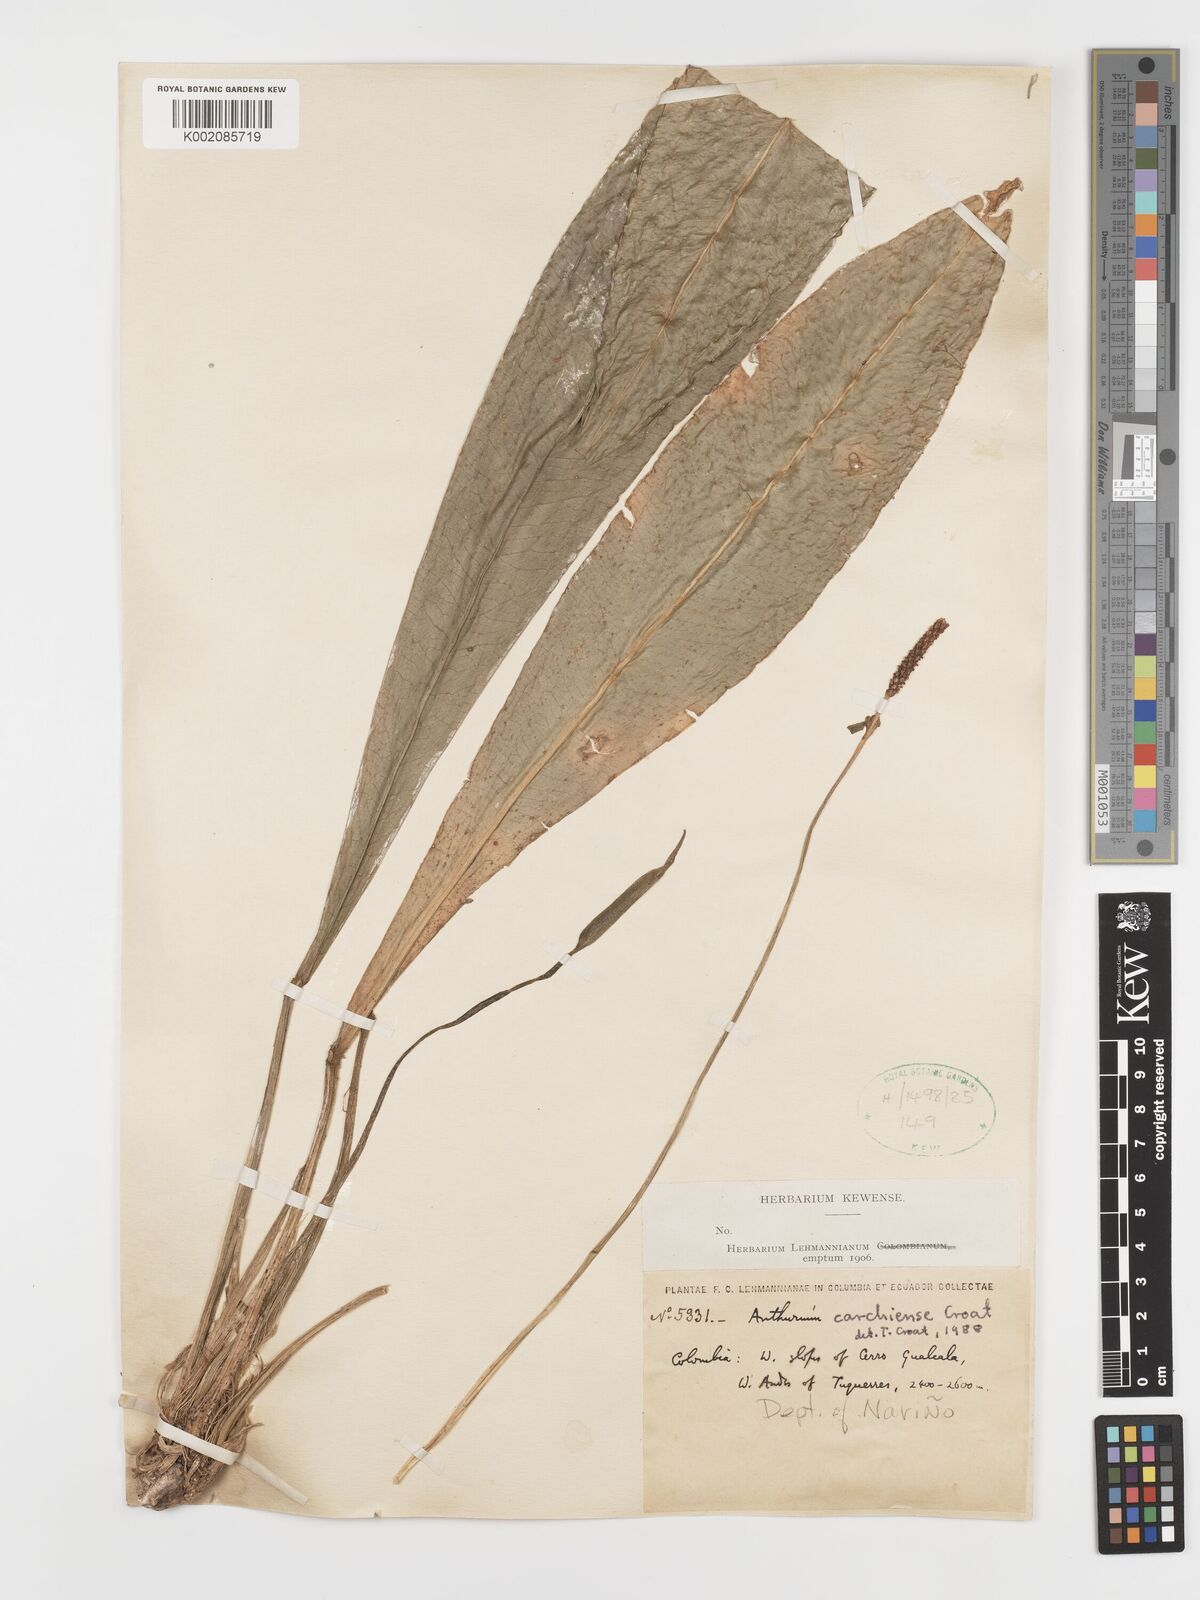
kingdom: Plantae
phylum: Tracheophyta
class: Liliopsida
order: Alismatales
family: Araceae
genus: Anthurium
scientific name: Anthurium carchiense
